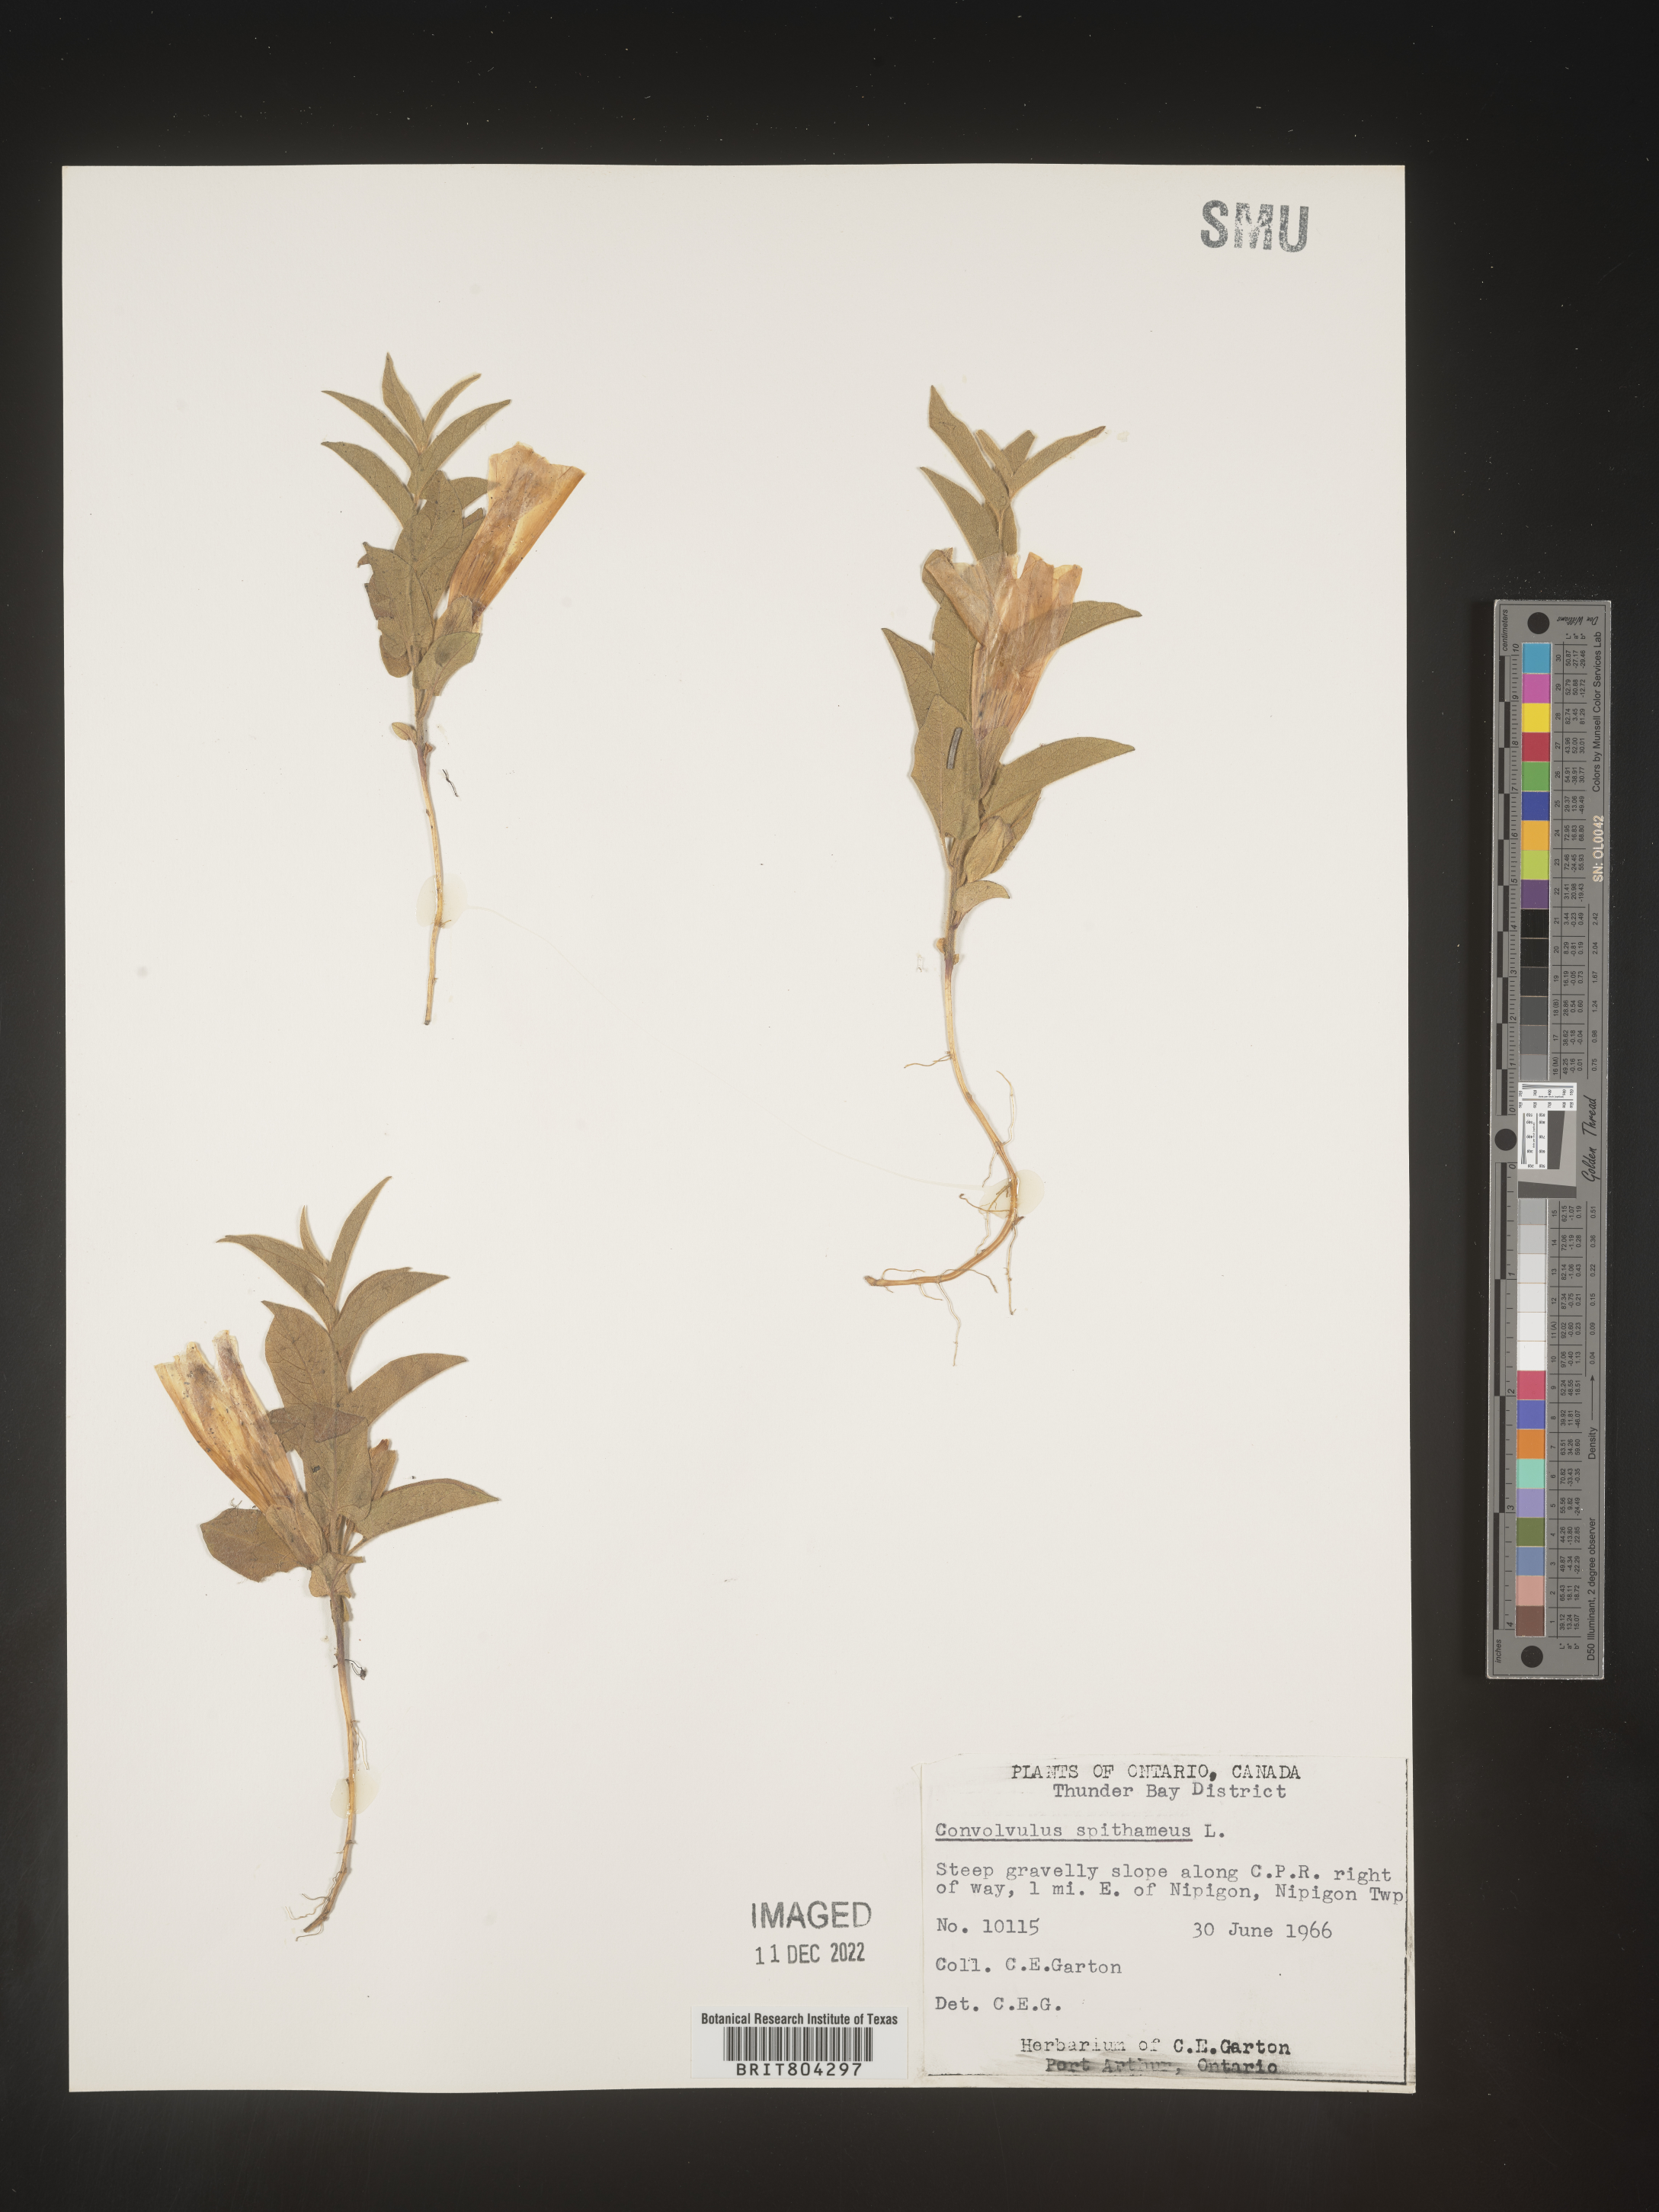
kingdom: Plantae
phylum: Tracheophyta
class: Magnoliopsida
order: Solanales
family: Convolvulaceae
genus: Calystegia
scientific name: Calystegia
